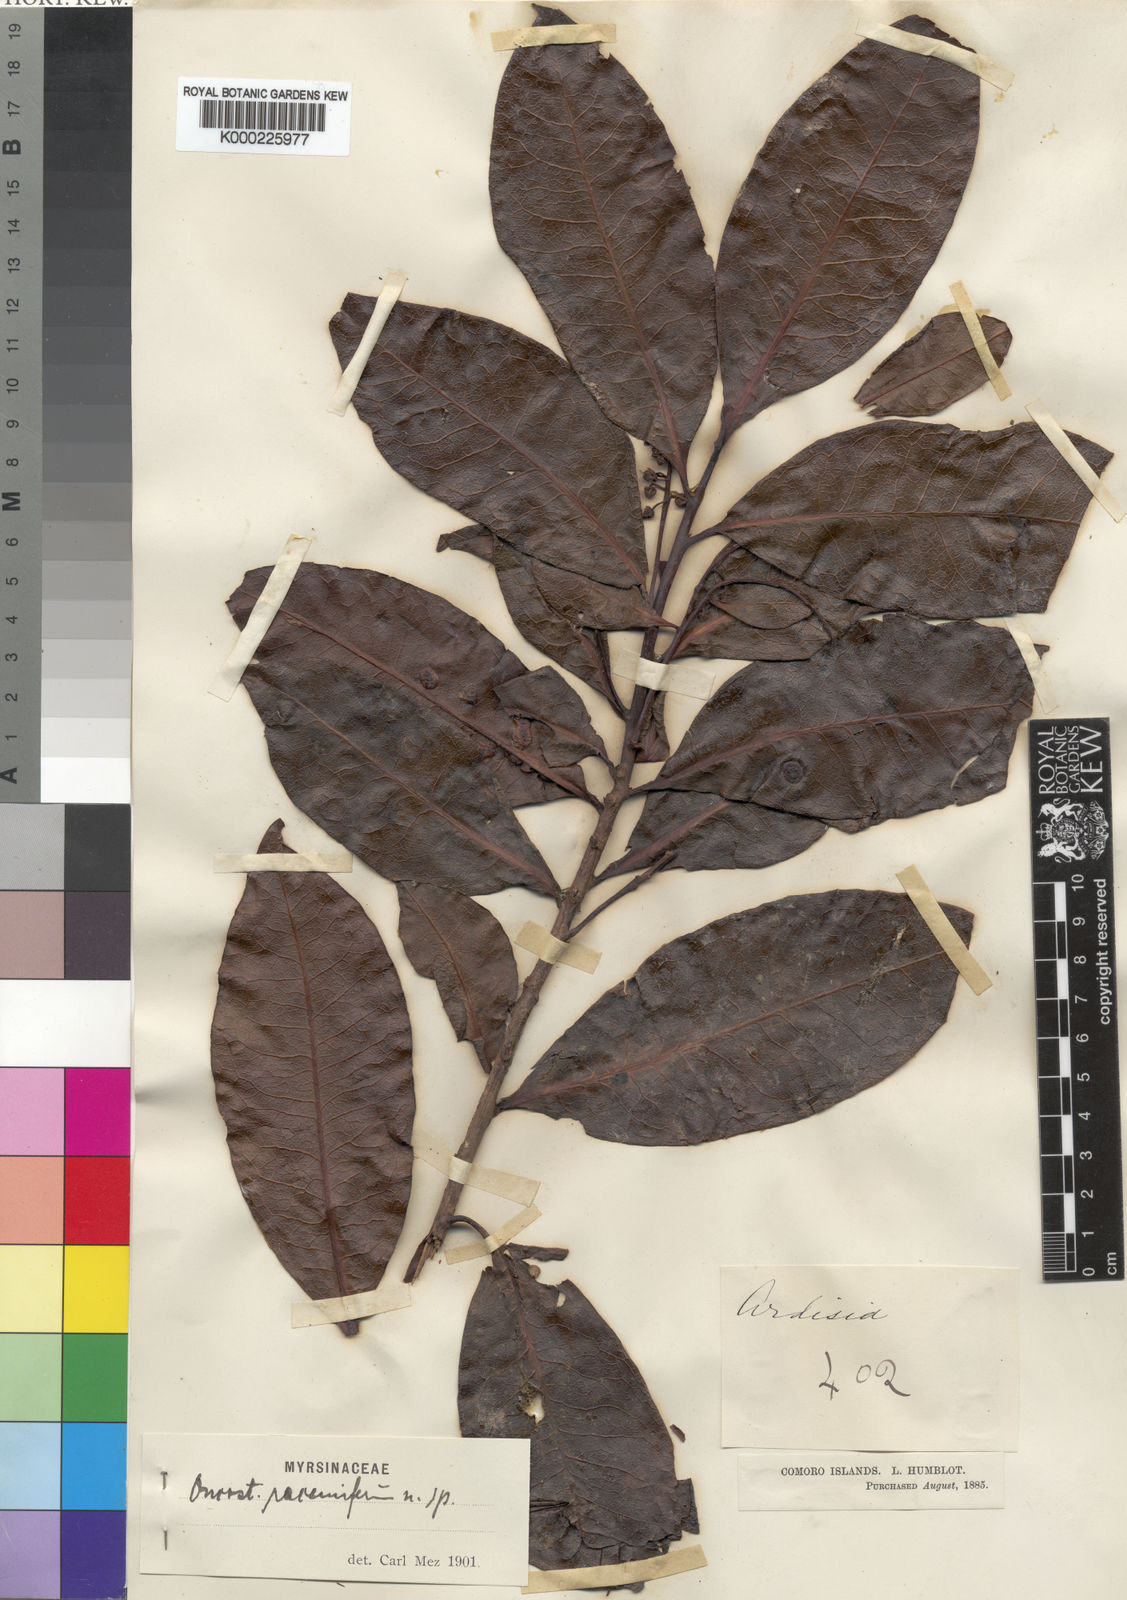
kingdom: Plantae
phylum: Tracheophyta
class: Magnoliopsida
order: Ericales
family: Primulaceae
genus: Oncostemum
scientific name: Oncostemum racemiferum
